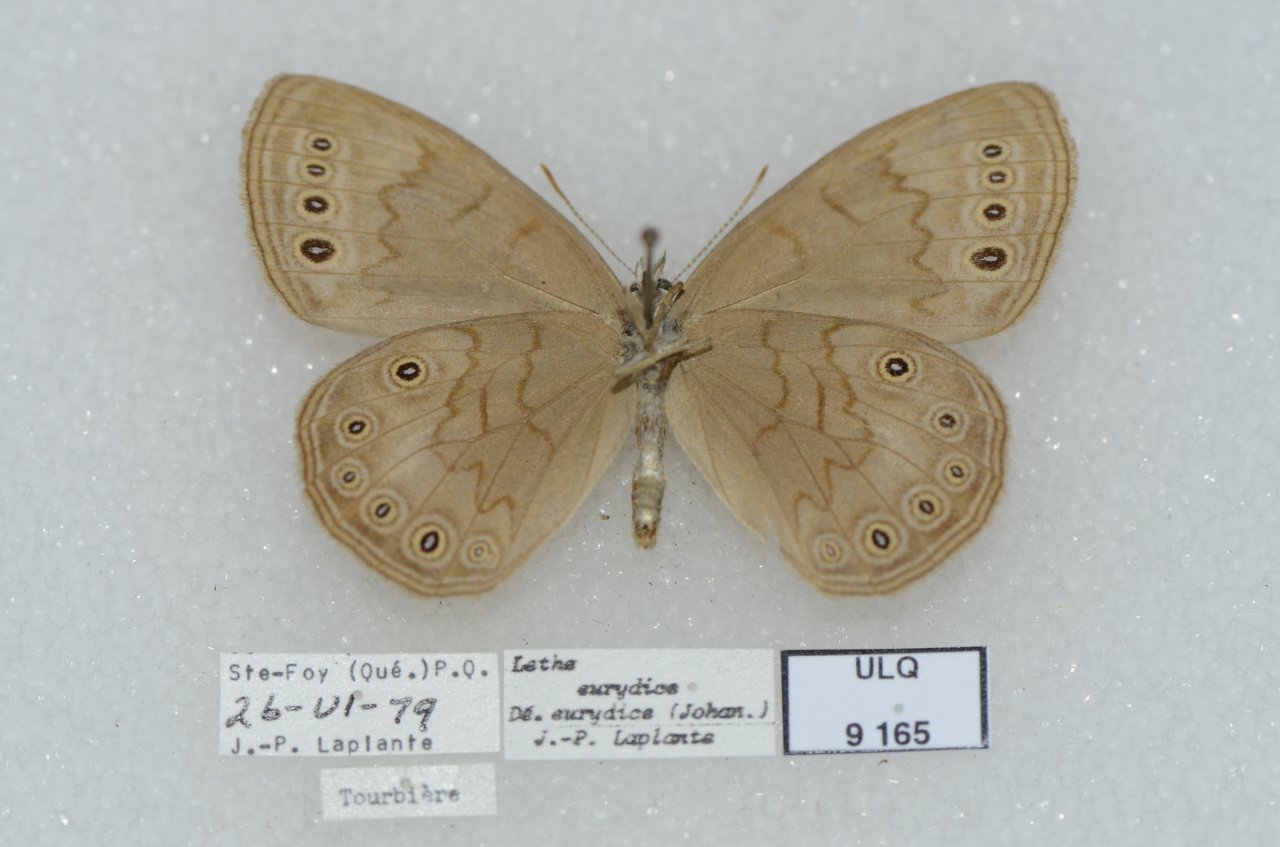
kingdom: Animalia
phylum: Arthropoda
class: Insecta
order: Lepidoptera
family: Nymphalidae
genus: Lethe
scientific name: Lethe eurydice
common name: Eyed Brown
